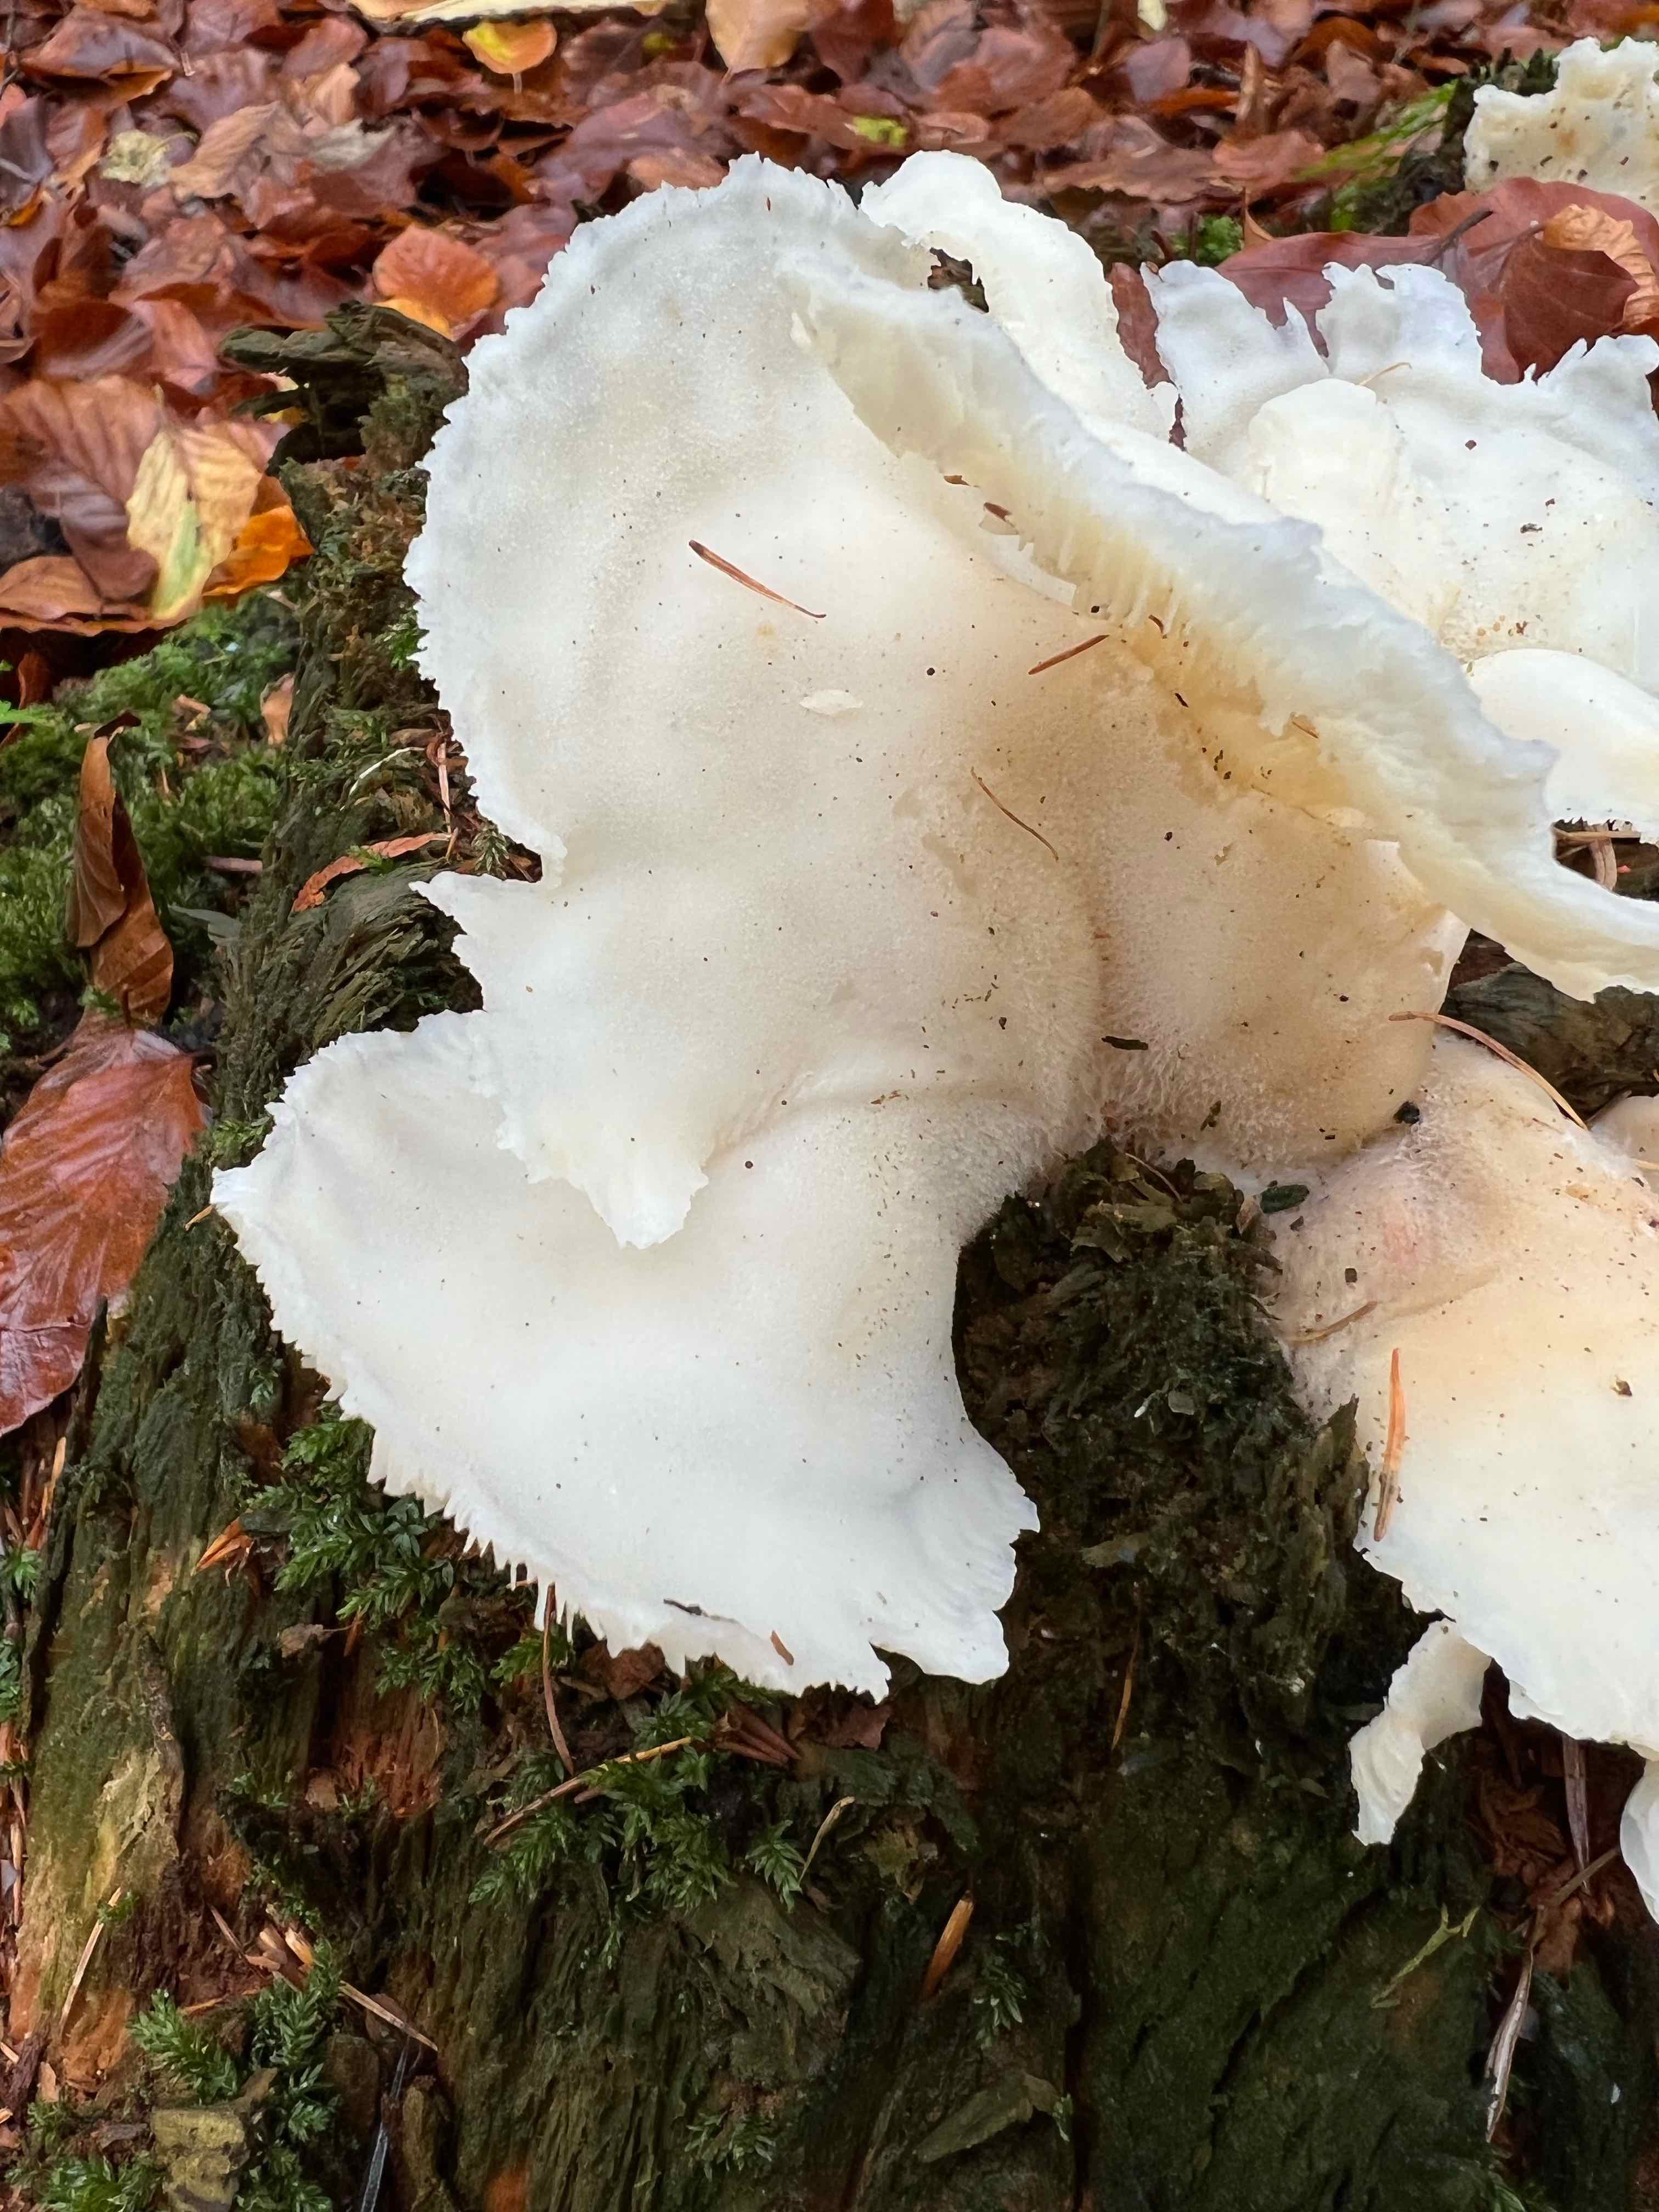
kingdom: Fungi
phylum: Basidiomycota
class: Agaricomycetes
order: Agaricales
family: Marasmiaceae
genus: Pleurocybella
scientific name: Pleurocybella porrigens
